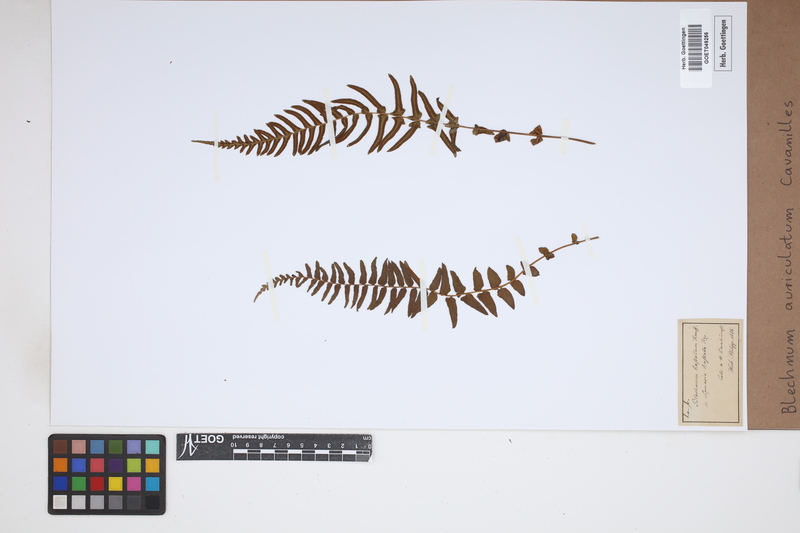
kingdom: Plantae
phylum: Tracheophyta
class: Polypodiopsida
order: Polypodiales
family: Blechnaceae
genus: Blechnum
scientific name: Blechnum auriculatum
